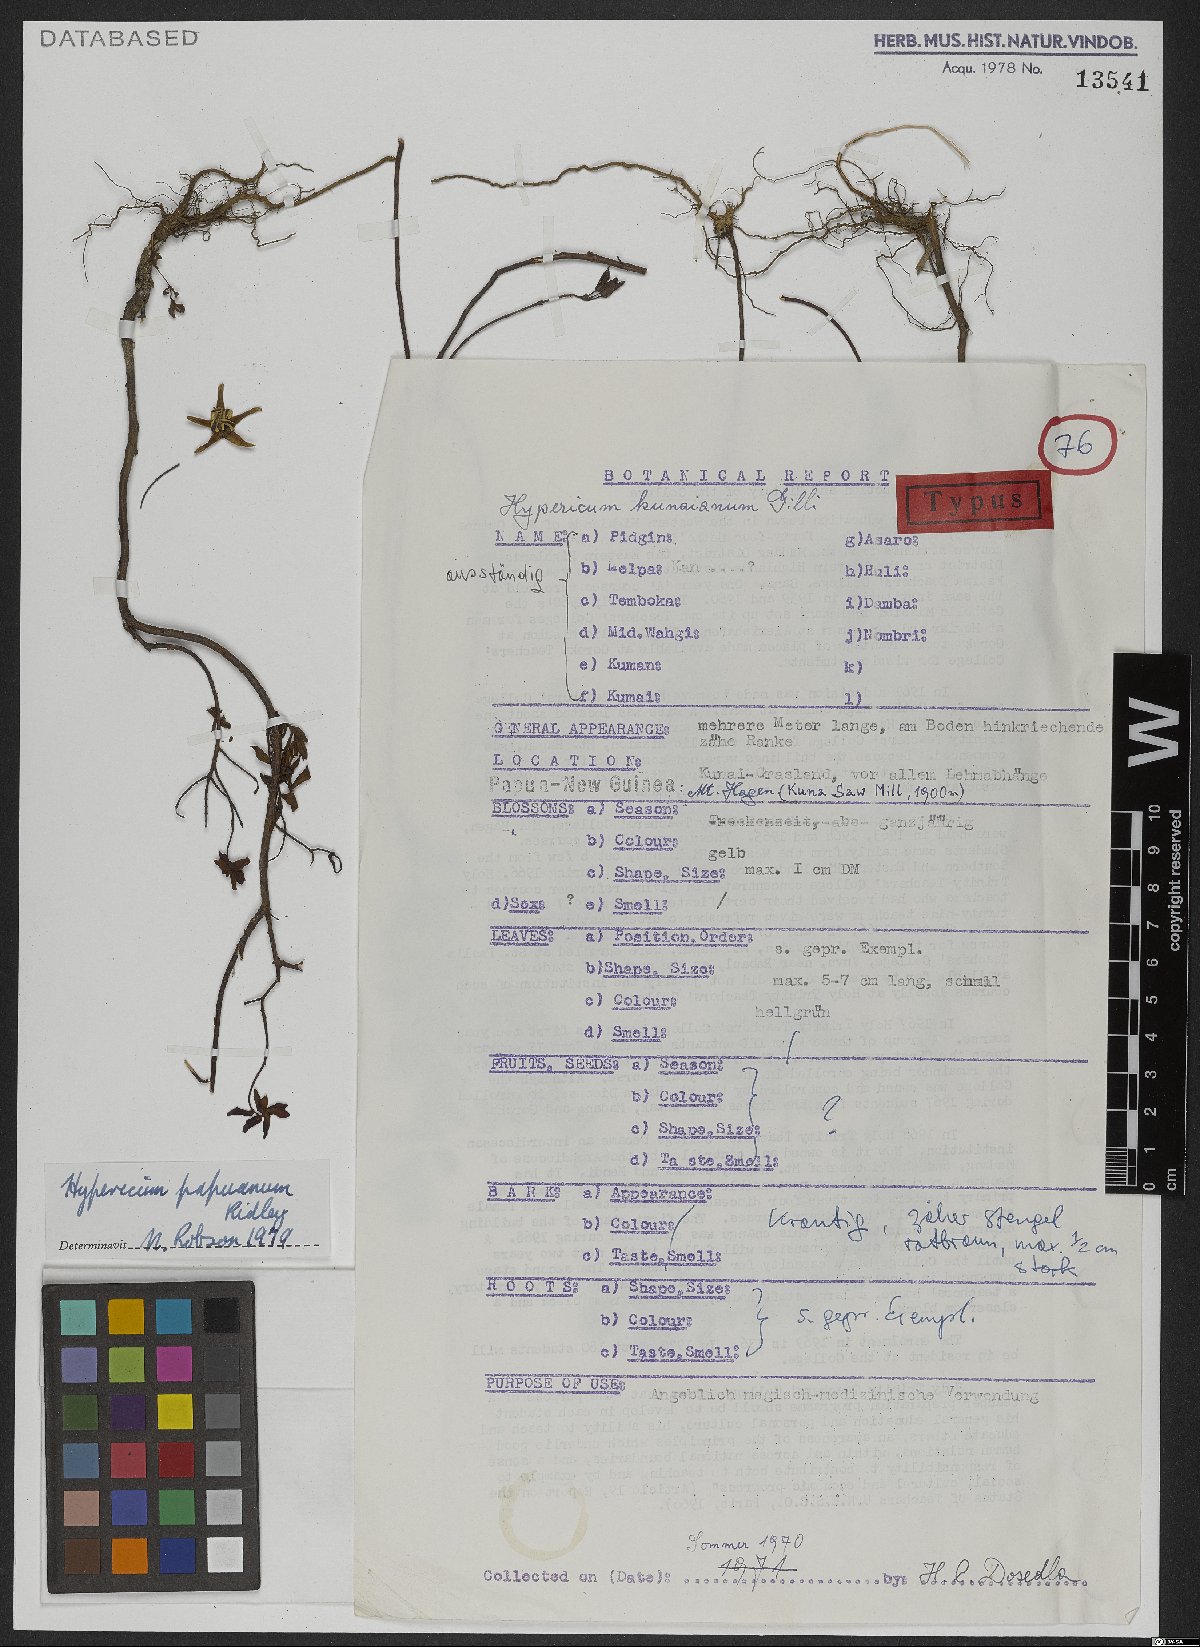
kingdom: Plantae
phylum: Tracheophyta
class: Magnoliopsida
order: Malpighiales
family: Hypericaceae
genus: Hypericum
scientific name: Hypericum papuanum
